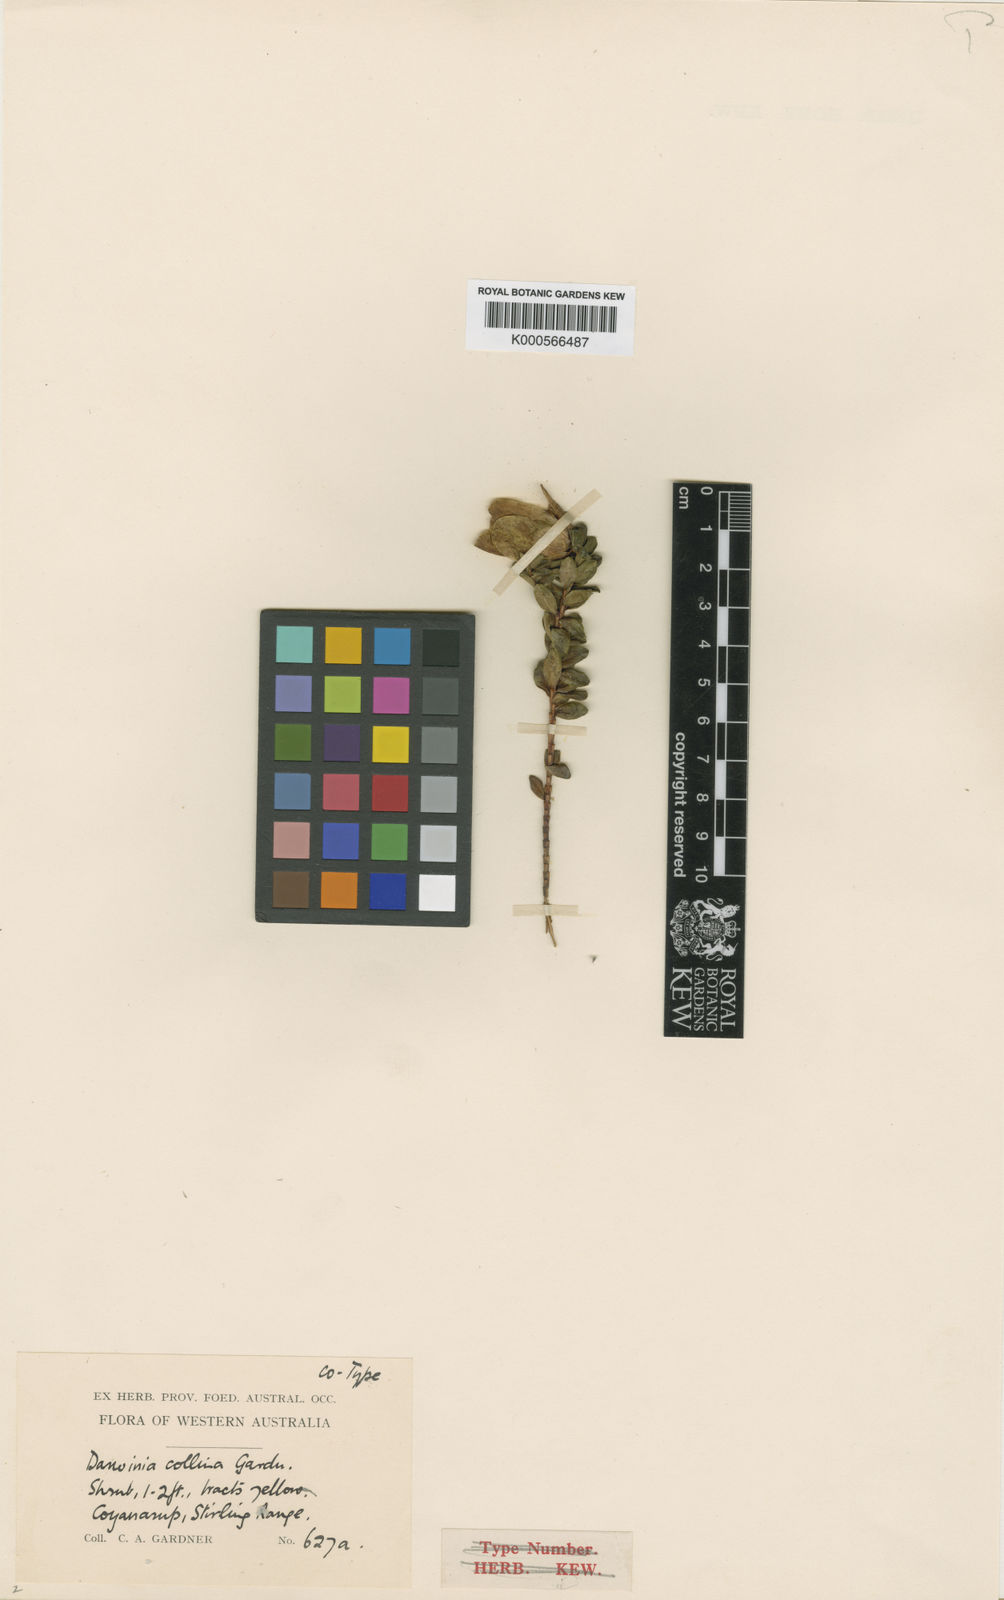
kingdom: Plantae
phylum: Tracheophyta
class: Magnoliopsida
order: Myrtales
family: Myrtaceae
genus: Darwinia
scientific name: Darwinia collina
